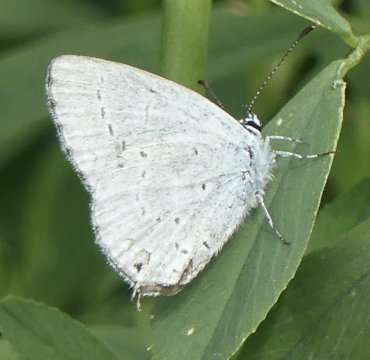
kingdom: Animalia
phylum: Arthropoda
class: Insecta
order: Lepidoptera
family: Lycaenidae
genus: Elkalyce
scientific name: Elkalyce amyntula
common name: Western Tailed-Blue
